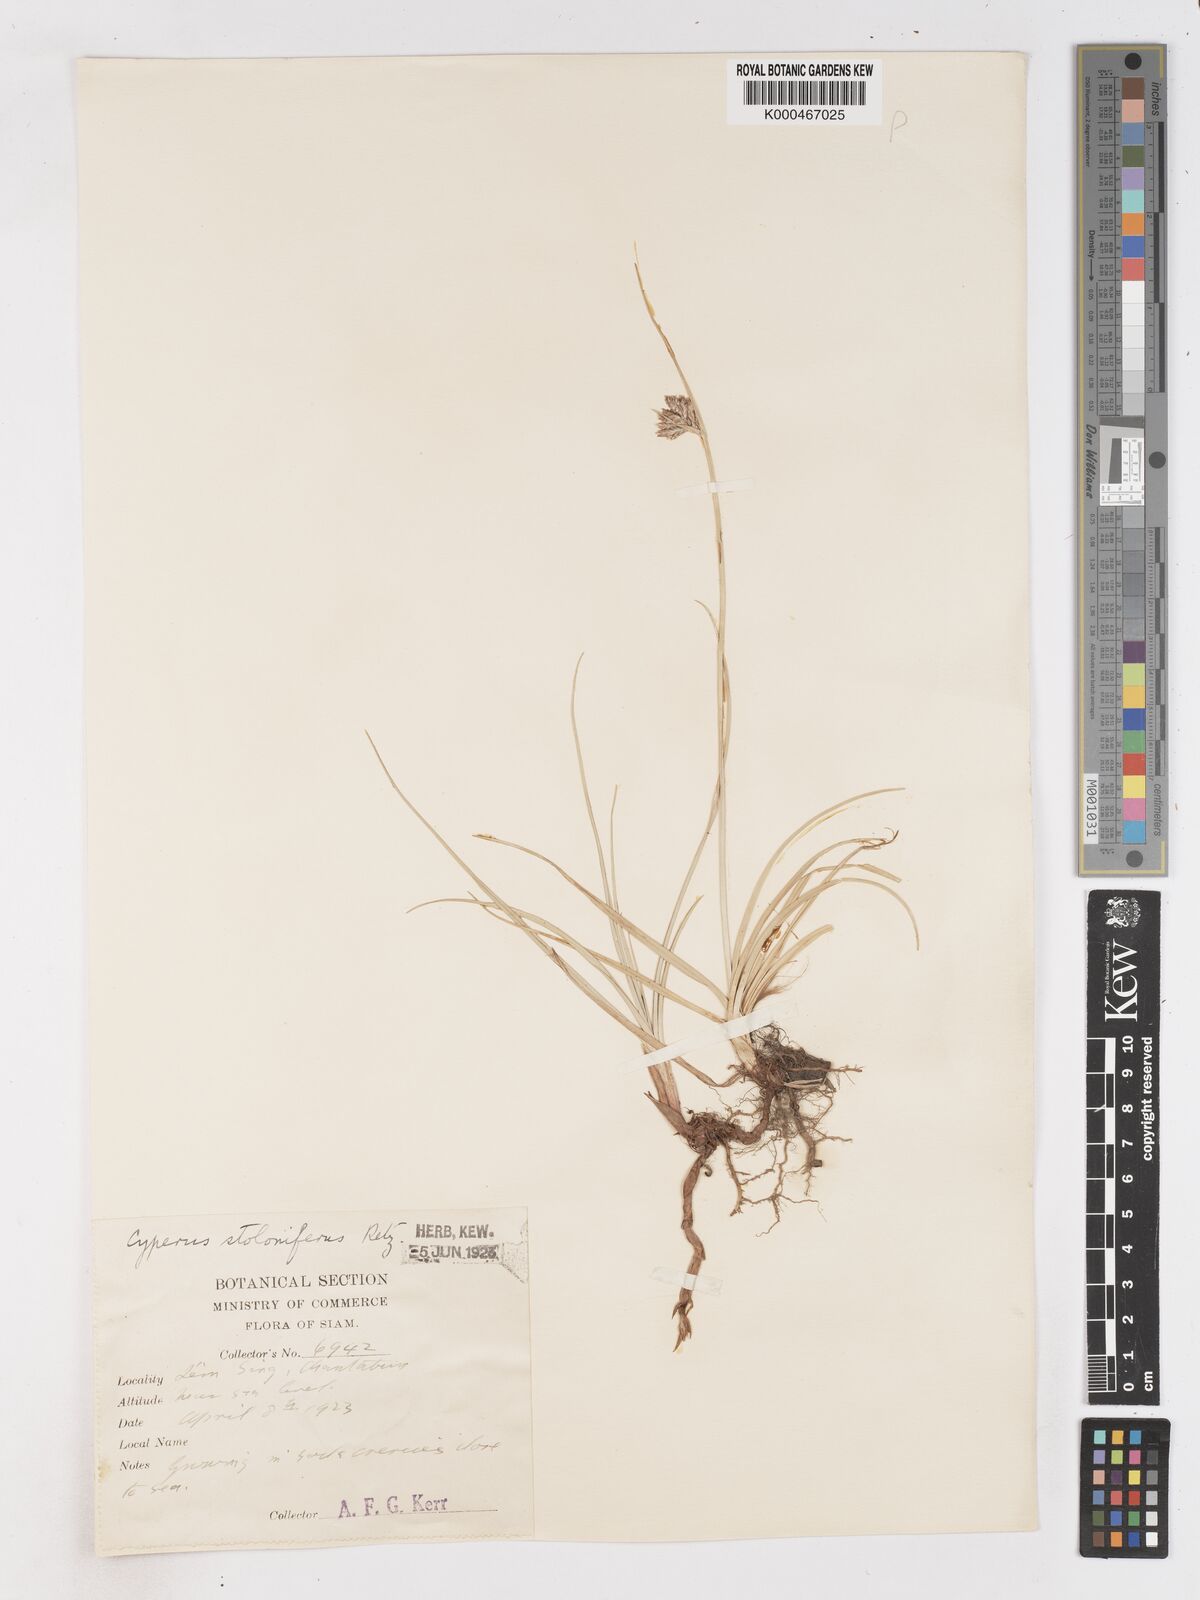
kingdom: Plantae
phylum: Tracheophyta
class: Liliopsida
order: Poales
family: Cyperaceae
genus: Cyperus
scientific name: Cyperus
